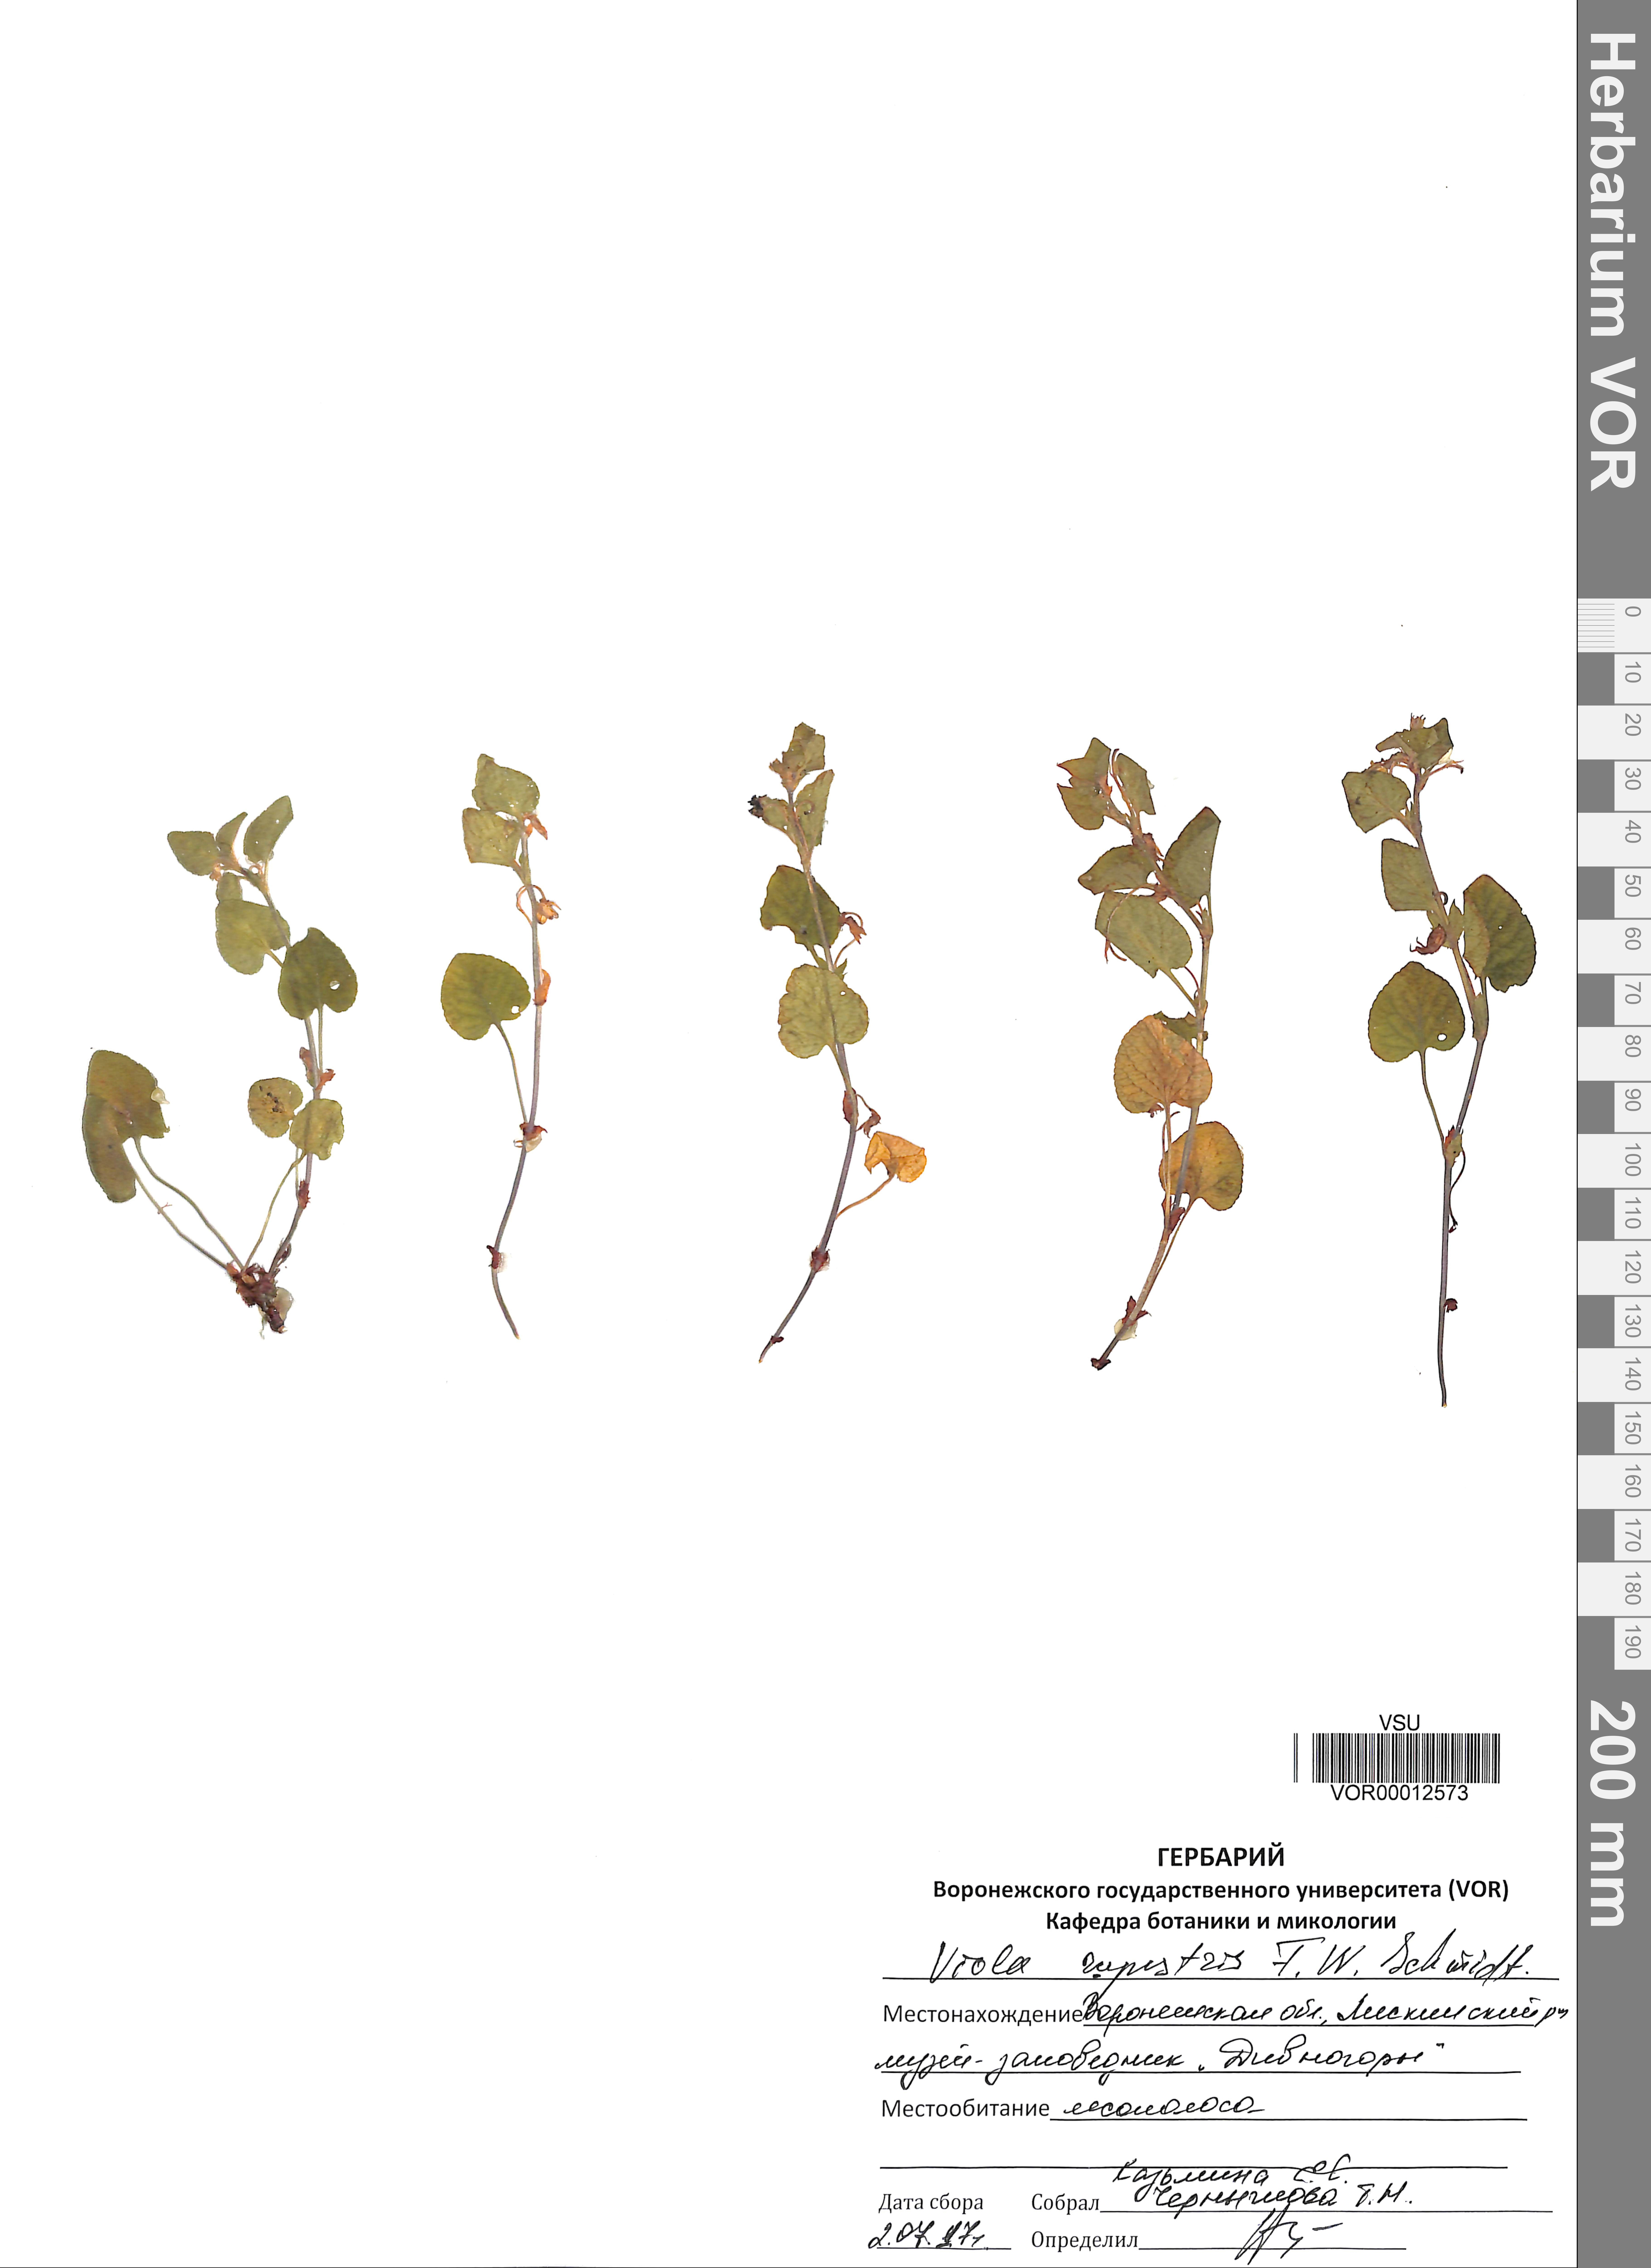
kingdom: Plantae
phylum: Tracheophyta
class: Magnoliopsida
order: Malpighiales
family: Violaceae
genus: Viola
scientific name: Viola rupestris
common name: Teesdale violet
